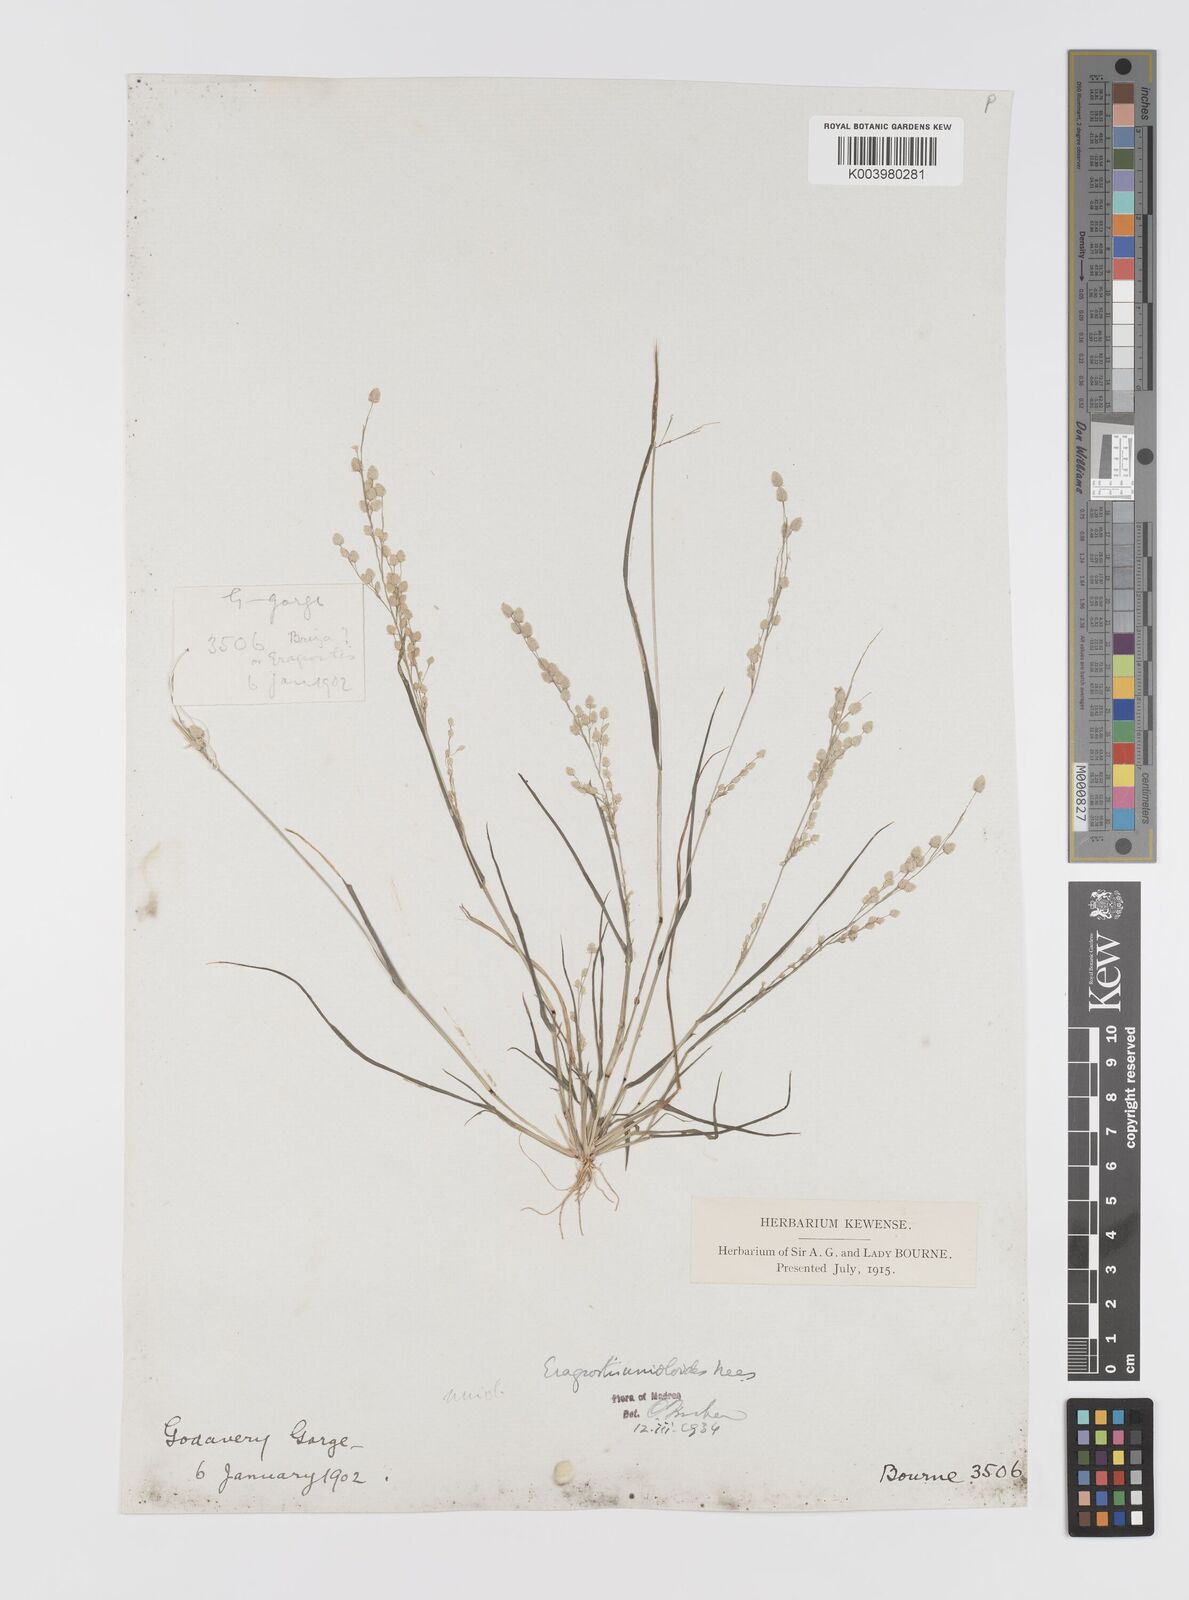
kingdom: Plantae
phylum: Tracheophyta
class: Liliopsida
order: Poales
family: Poaceae
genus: Eragrostis
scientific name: Eragrostis unioloides
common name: Chinese lovegrass
